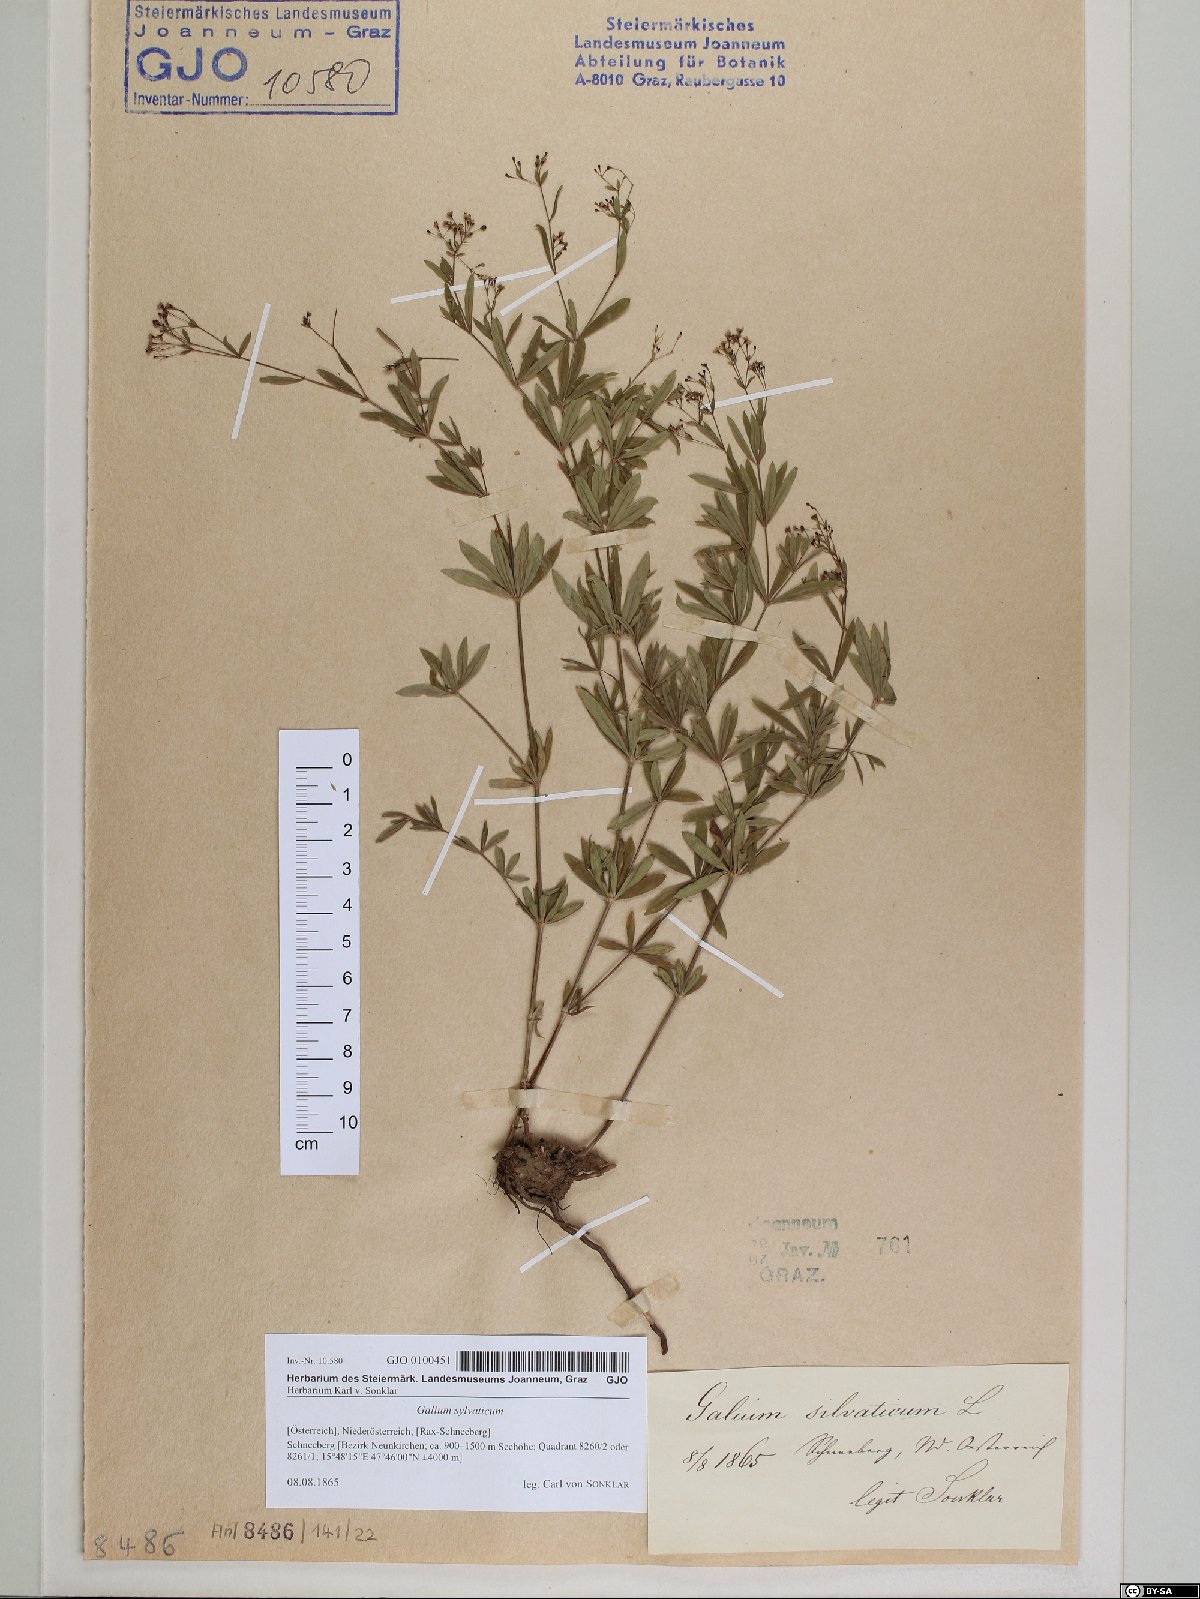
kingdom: Plantae
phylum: Tracheophyta
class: Magnoliopsida
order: Gentianales
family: Rubiaceae
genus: Galium
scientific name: Galium sylvaticum
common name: Wood bedstraw
